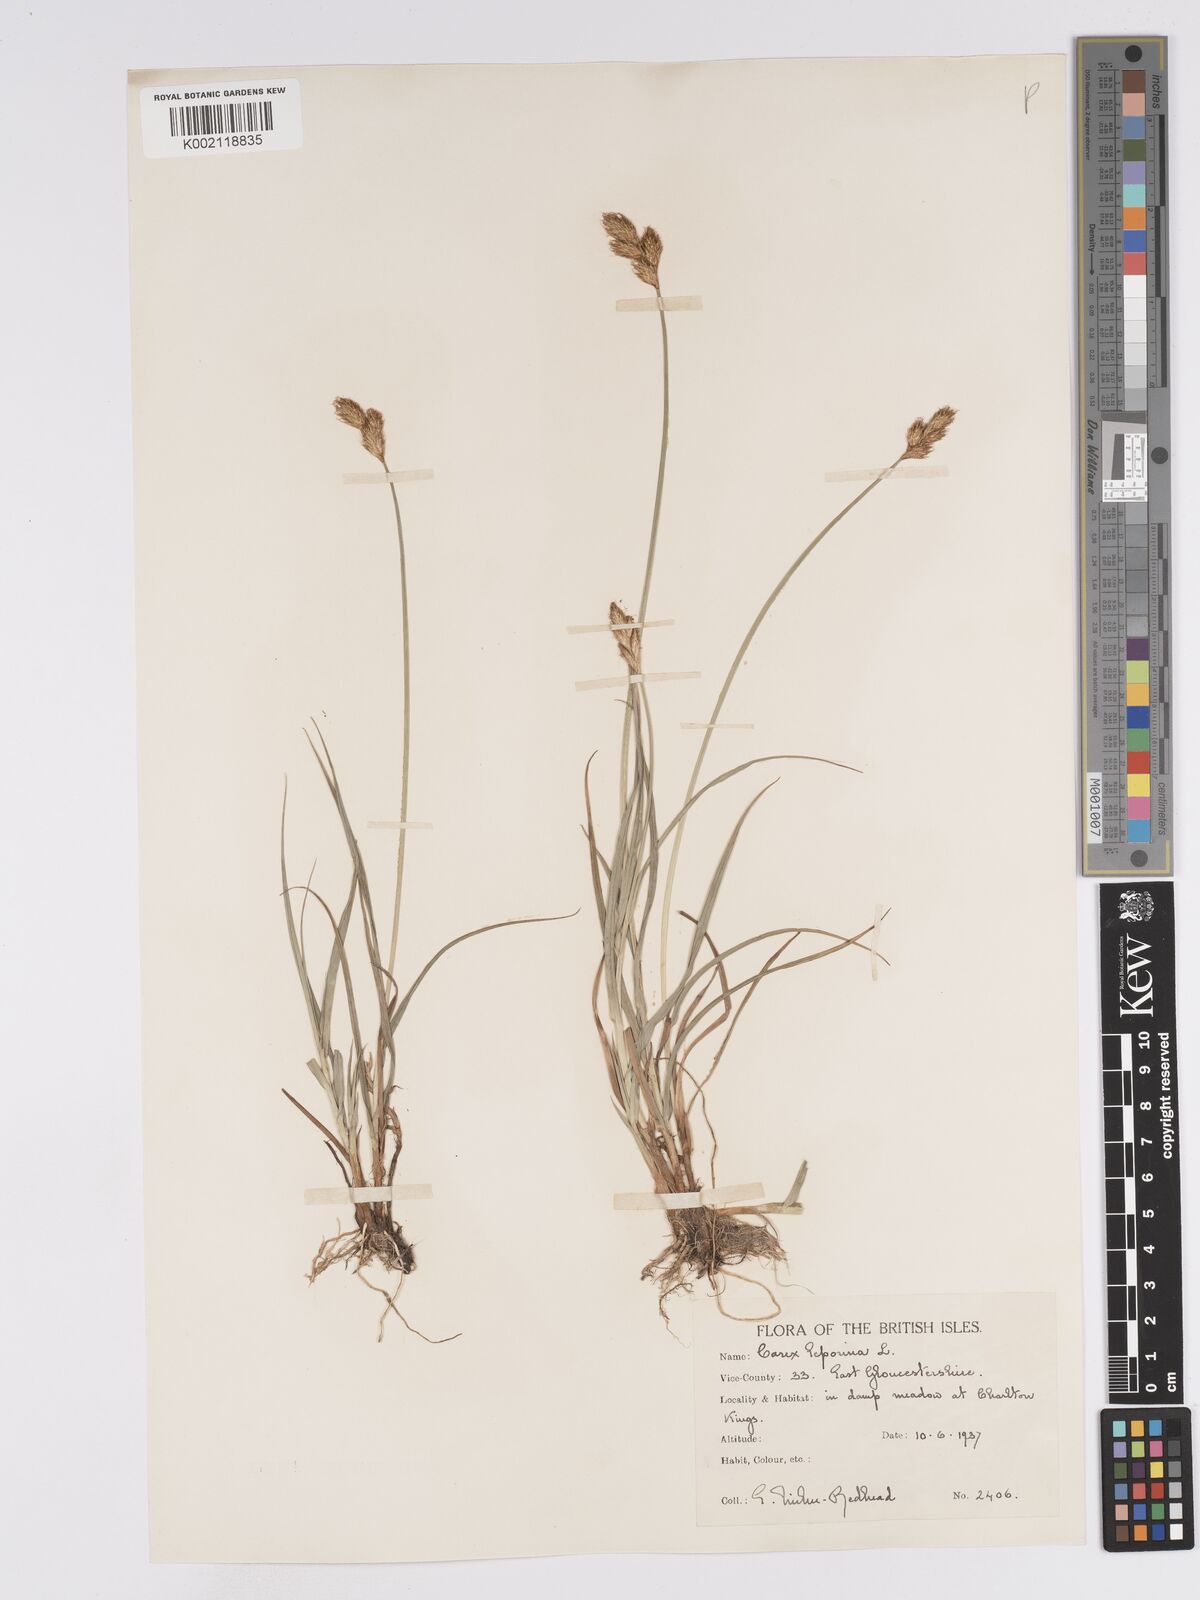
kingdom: Plantae
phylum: Tracheophyta
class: Liliopsida
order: Poales
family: Cyperaceae
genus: Carex
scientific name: Carex leporina
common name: Oval sedge
